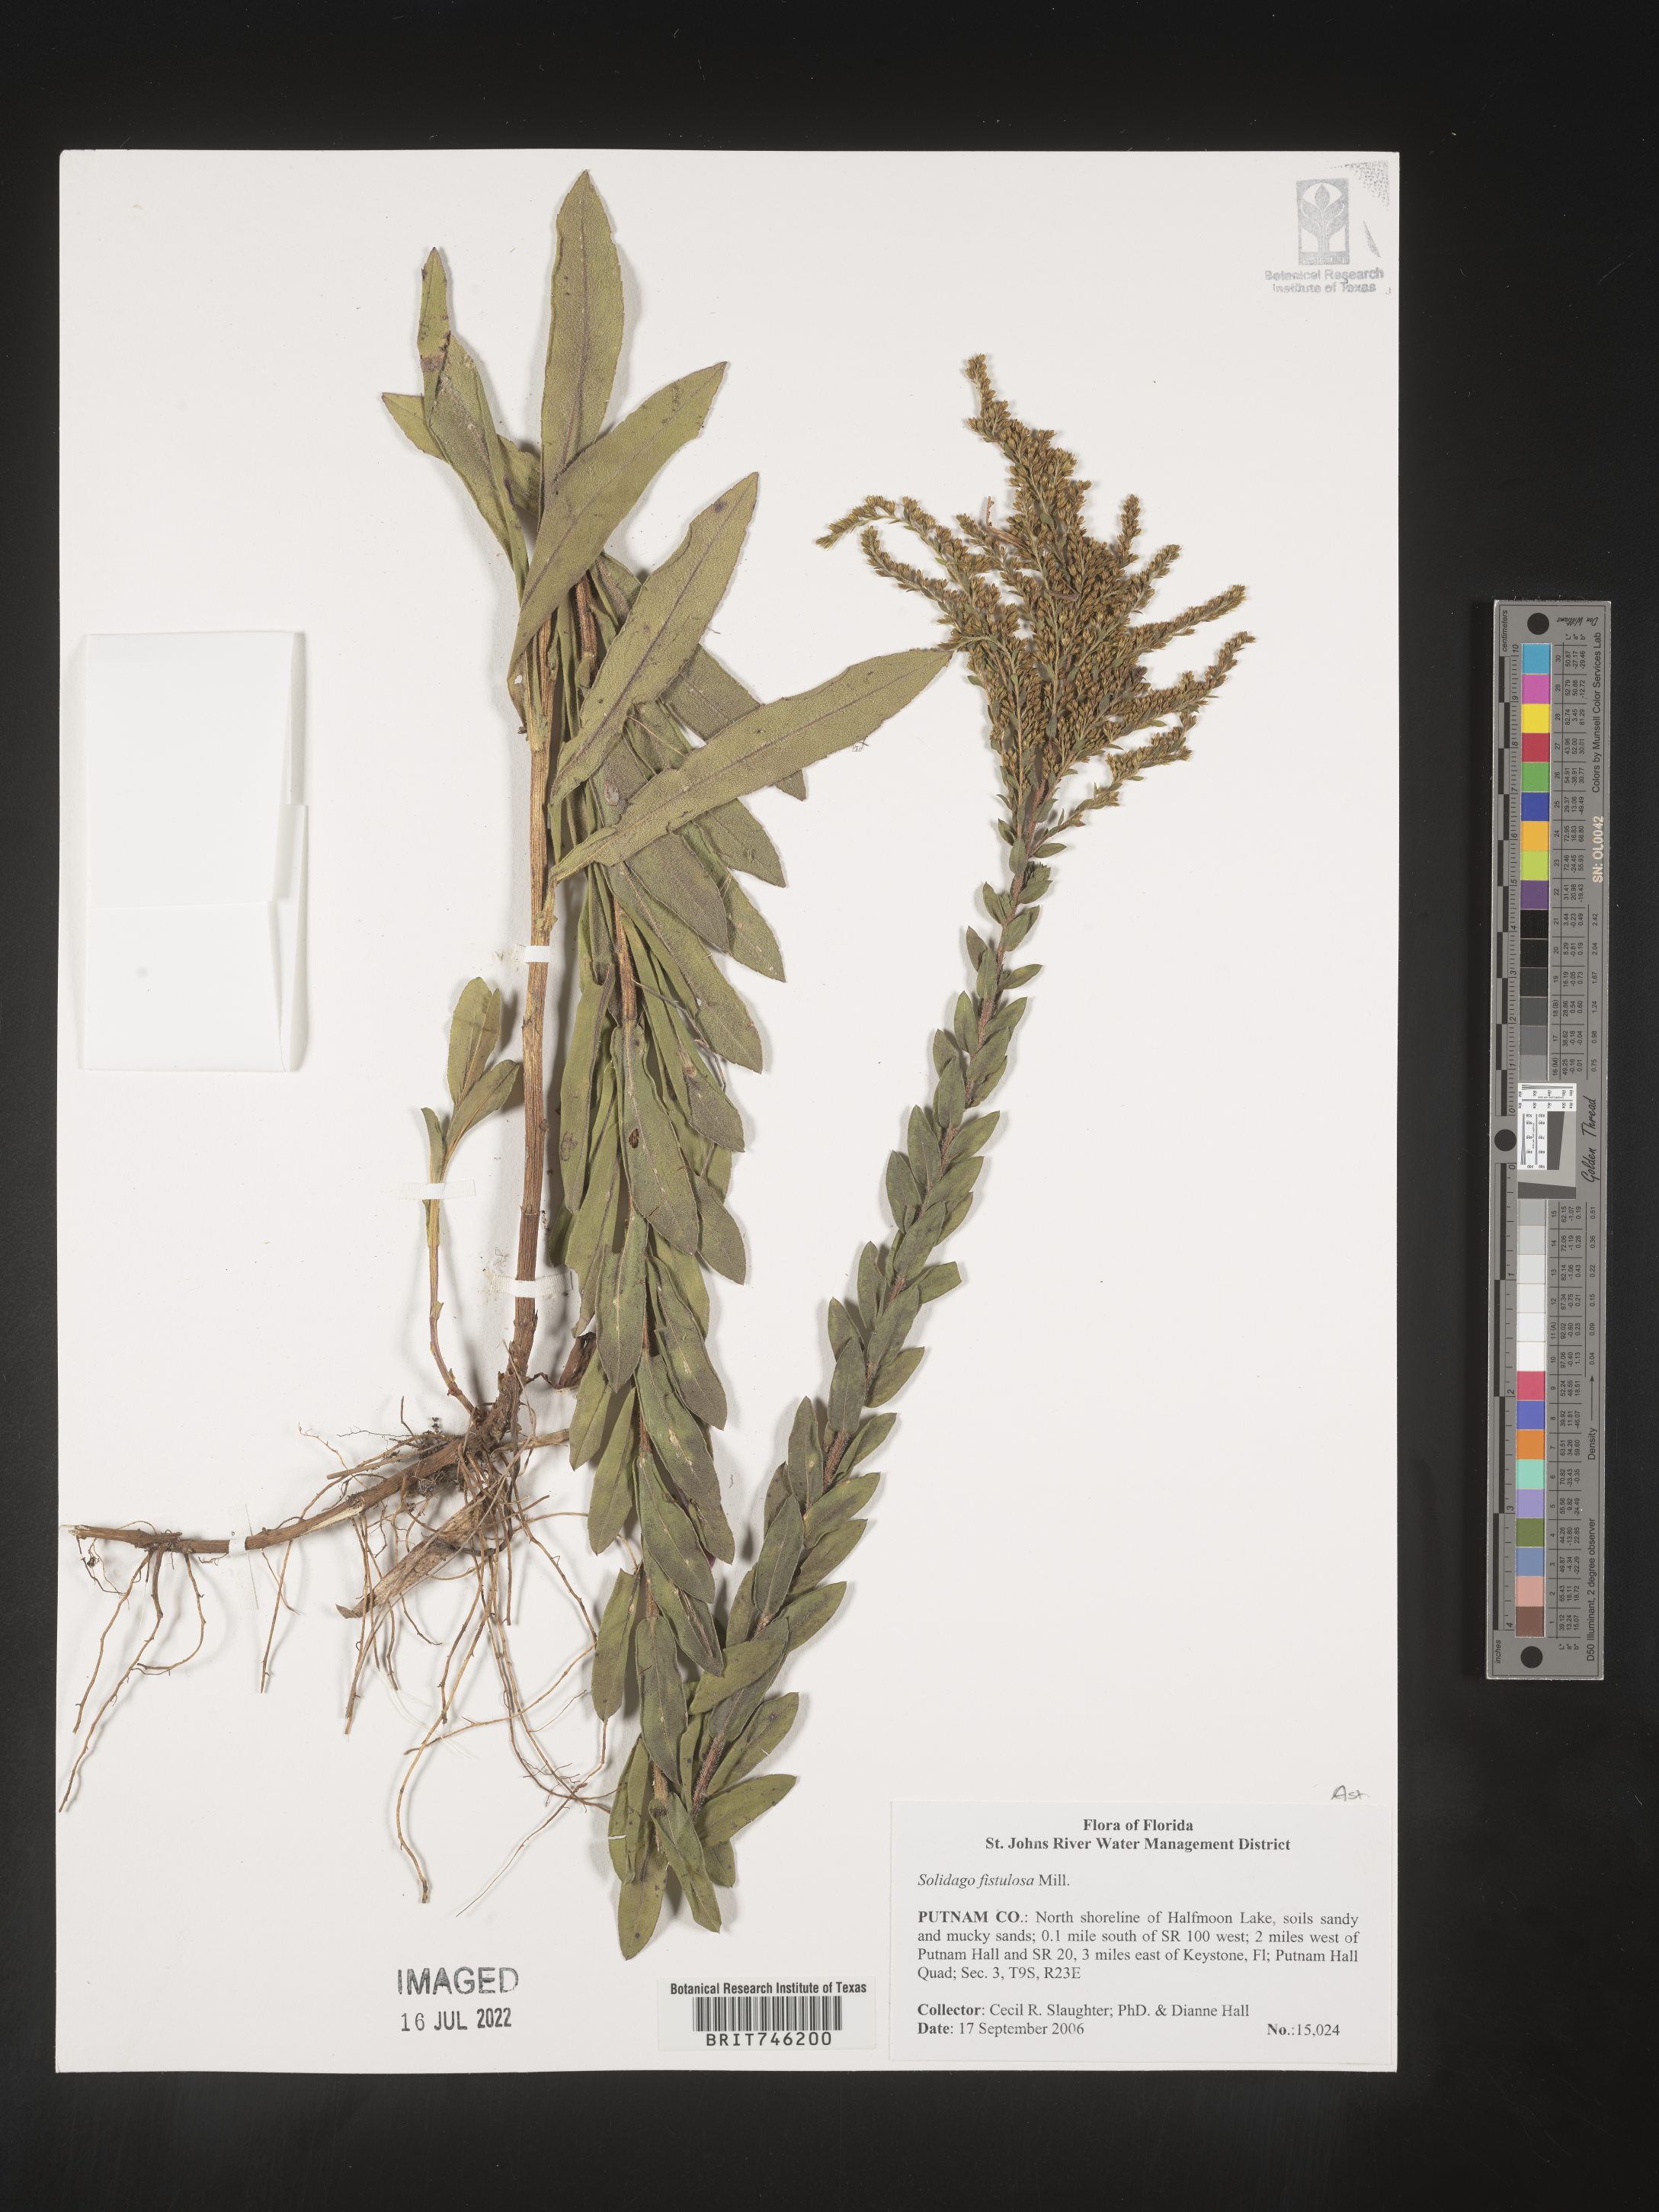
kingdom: Plantae
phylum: Tracheophyta
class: Magnoliopsida
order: Asterales
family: Asteraceae
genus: Solidago
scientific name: Solidago fistulosa
